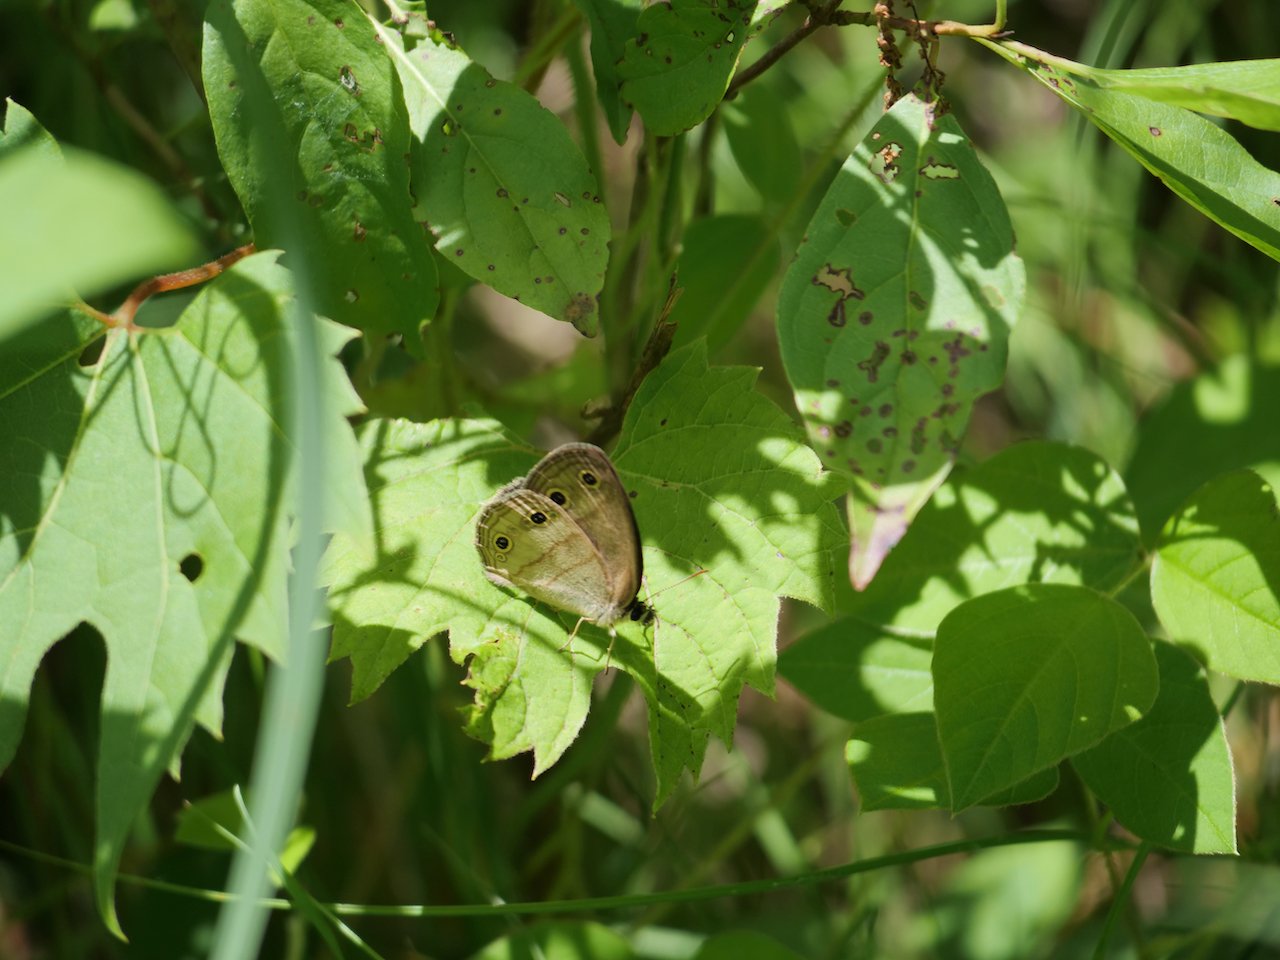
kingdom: Animalia
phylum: Arthropoda
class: Insecta
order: Lepidoptera
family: Nymphalidae
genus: Euptychia
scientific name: Euptychia cymela
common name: Little Wood Satyr
